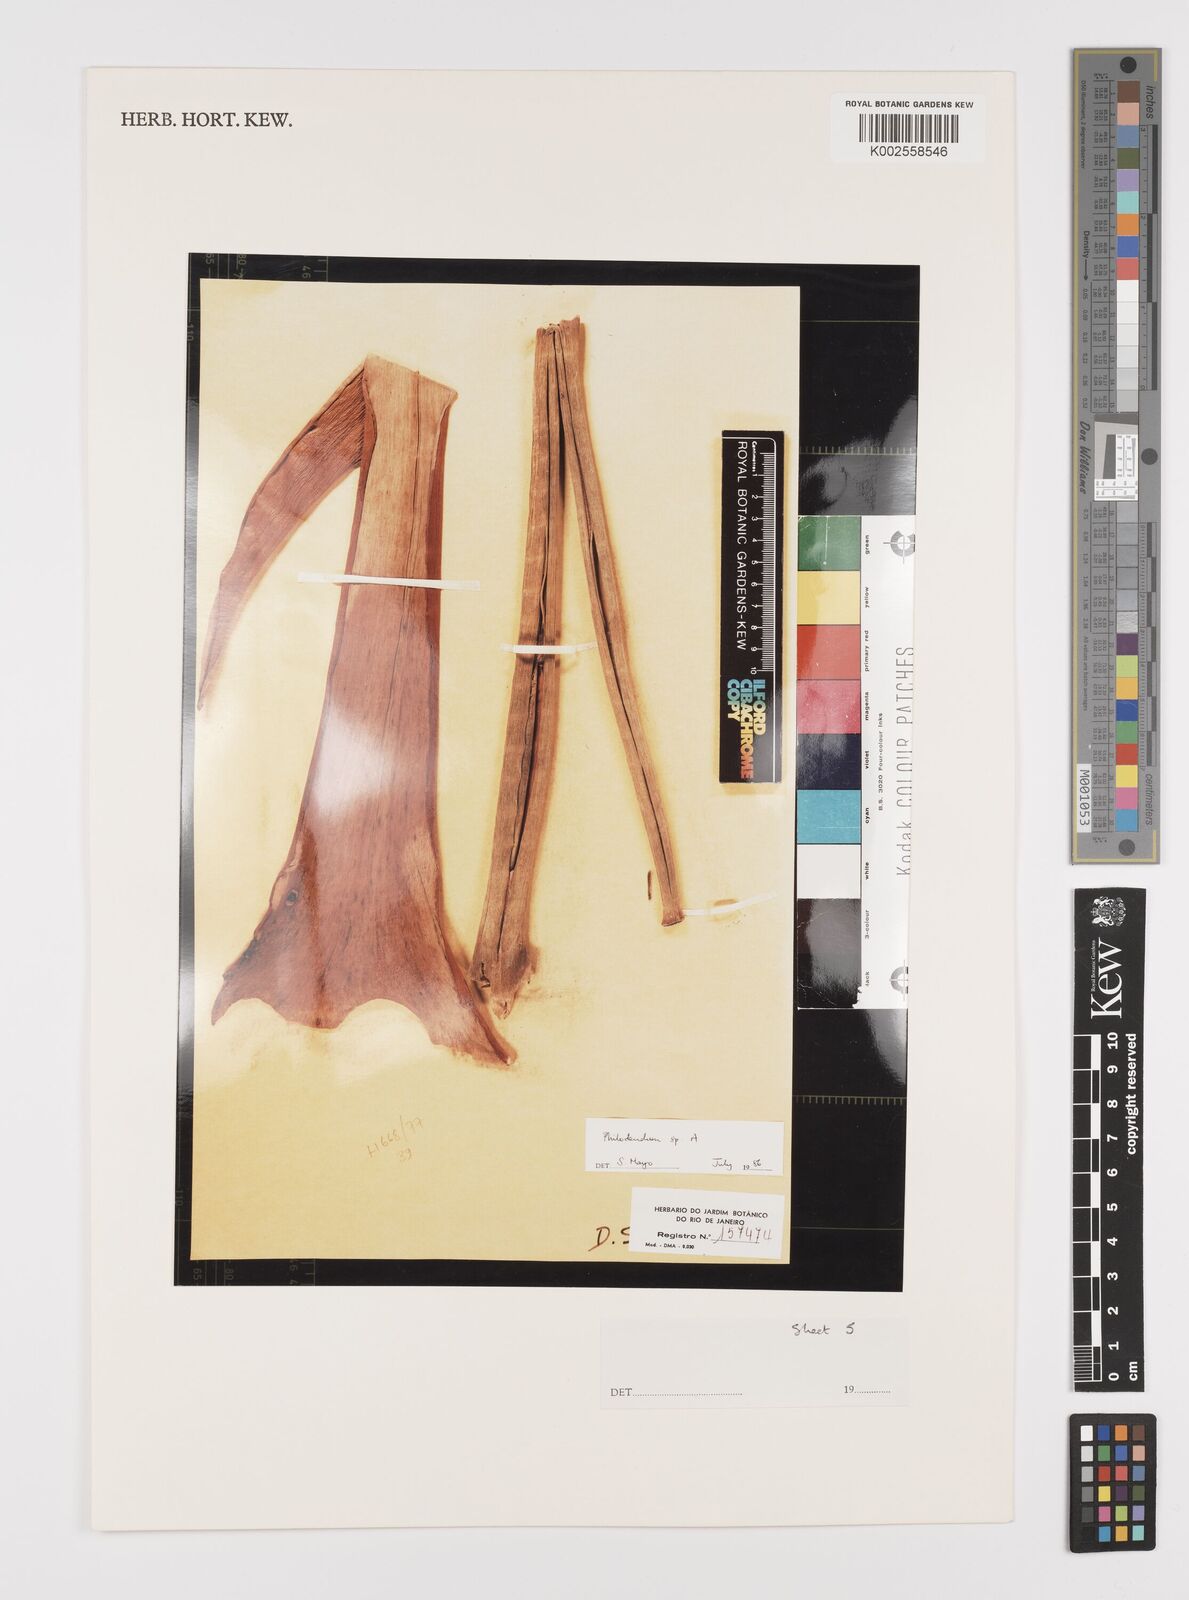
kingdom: Plantae
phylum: Tracheophyta
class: Liliopsida
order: Alismatales
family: Araceae
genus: Philodendron
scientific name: Philodendron
